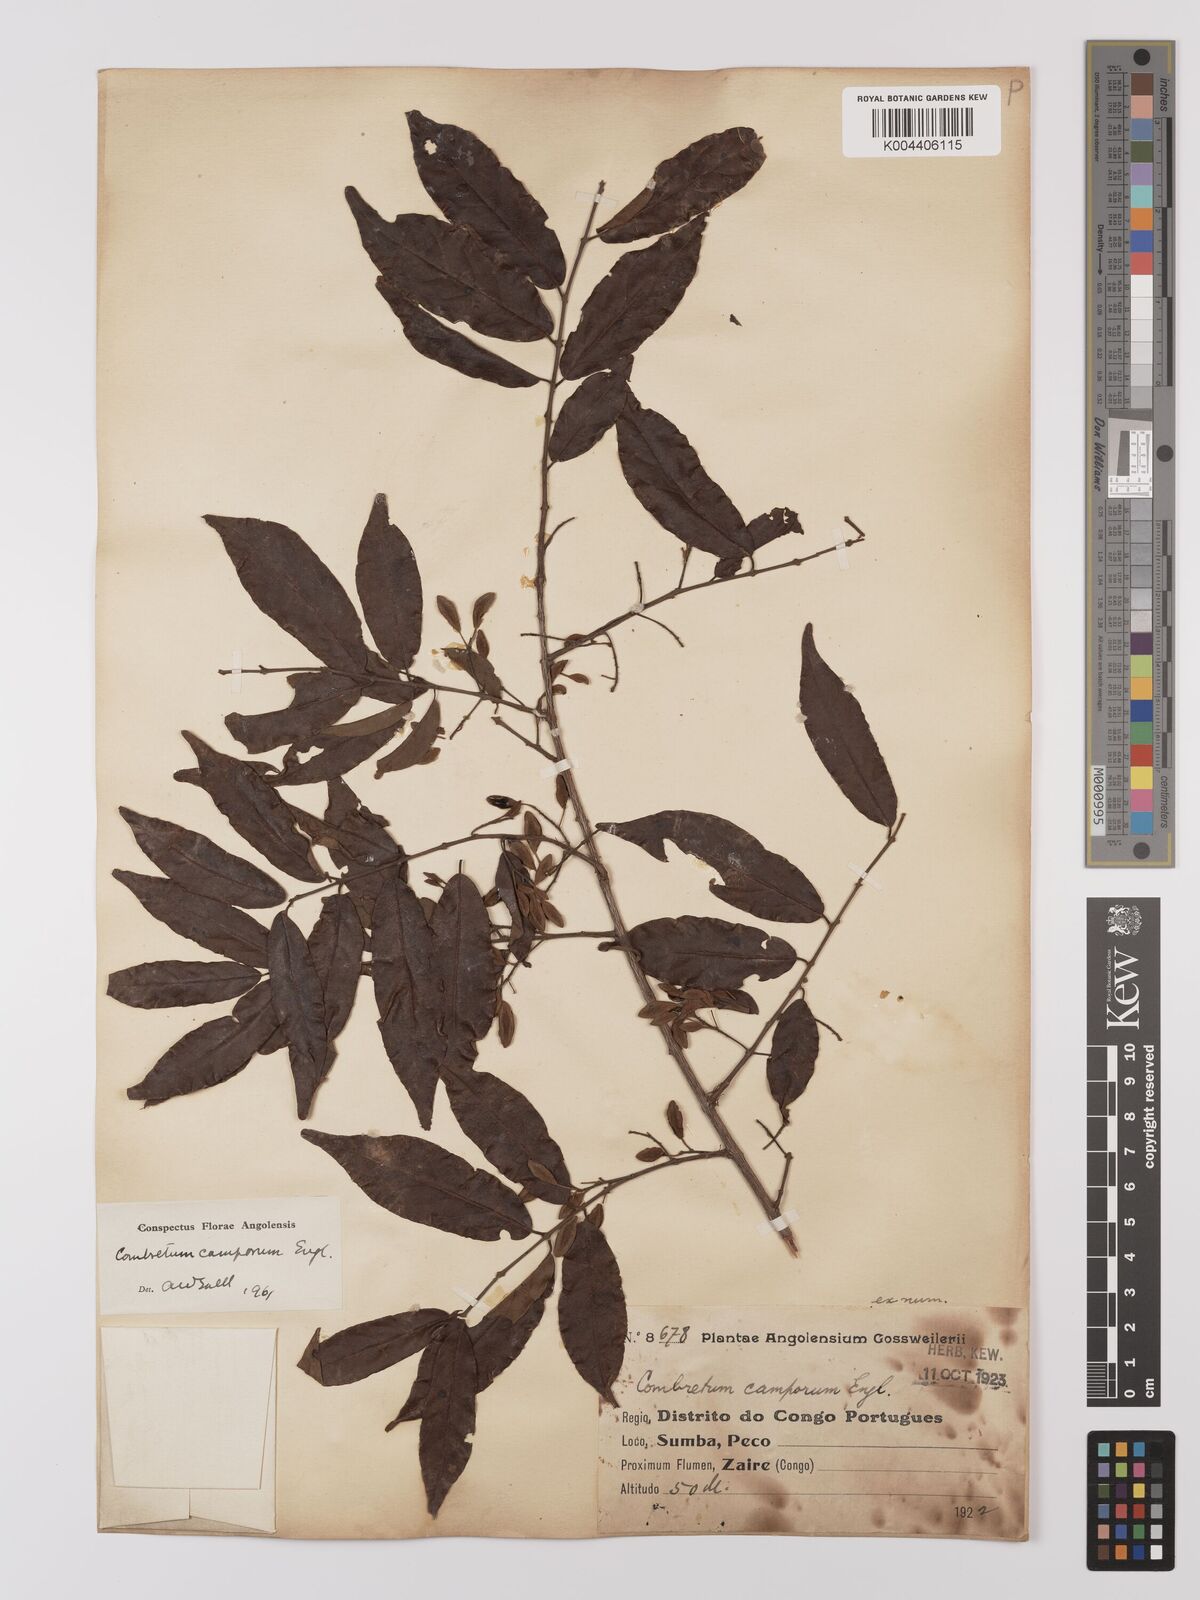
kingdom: Plantae
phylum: Tracheophyta
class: Magnoliopsida
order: Myrtales
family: Combretaceae
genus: Combretum
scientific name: Combretum camporum
